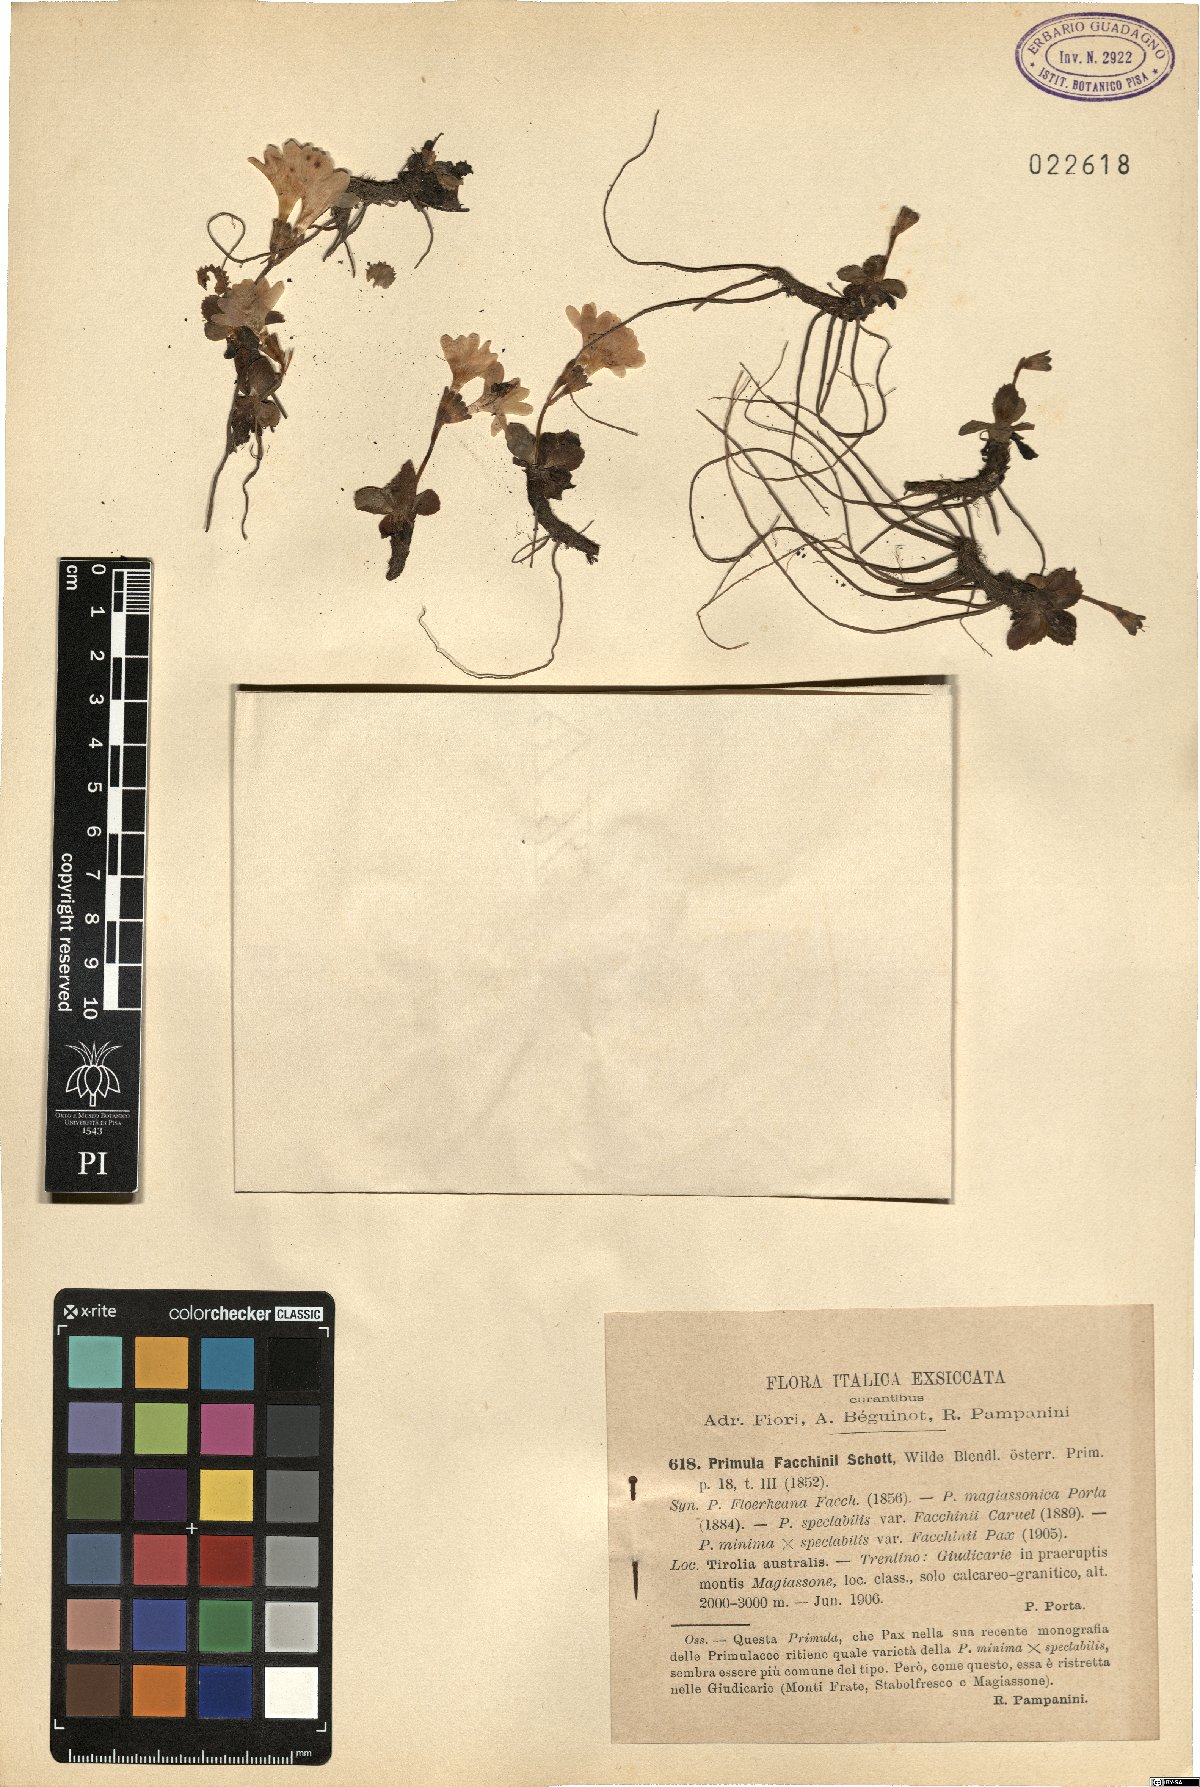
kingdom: Plantae
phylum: Tracheophyta
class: Magnoliopsida
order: Ericales
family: Primulaceae
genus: Primula
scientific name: Primula
